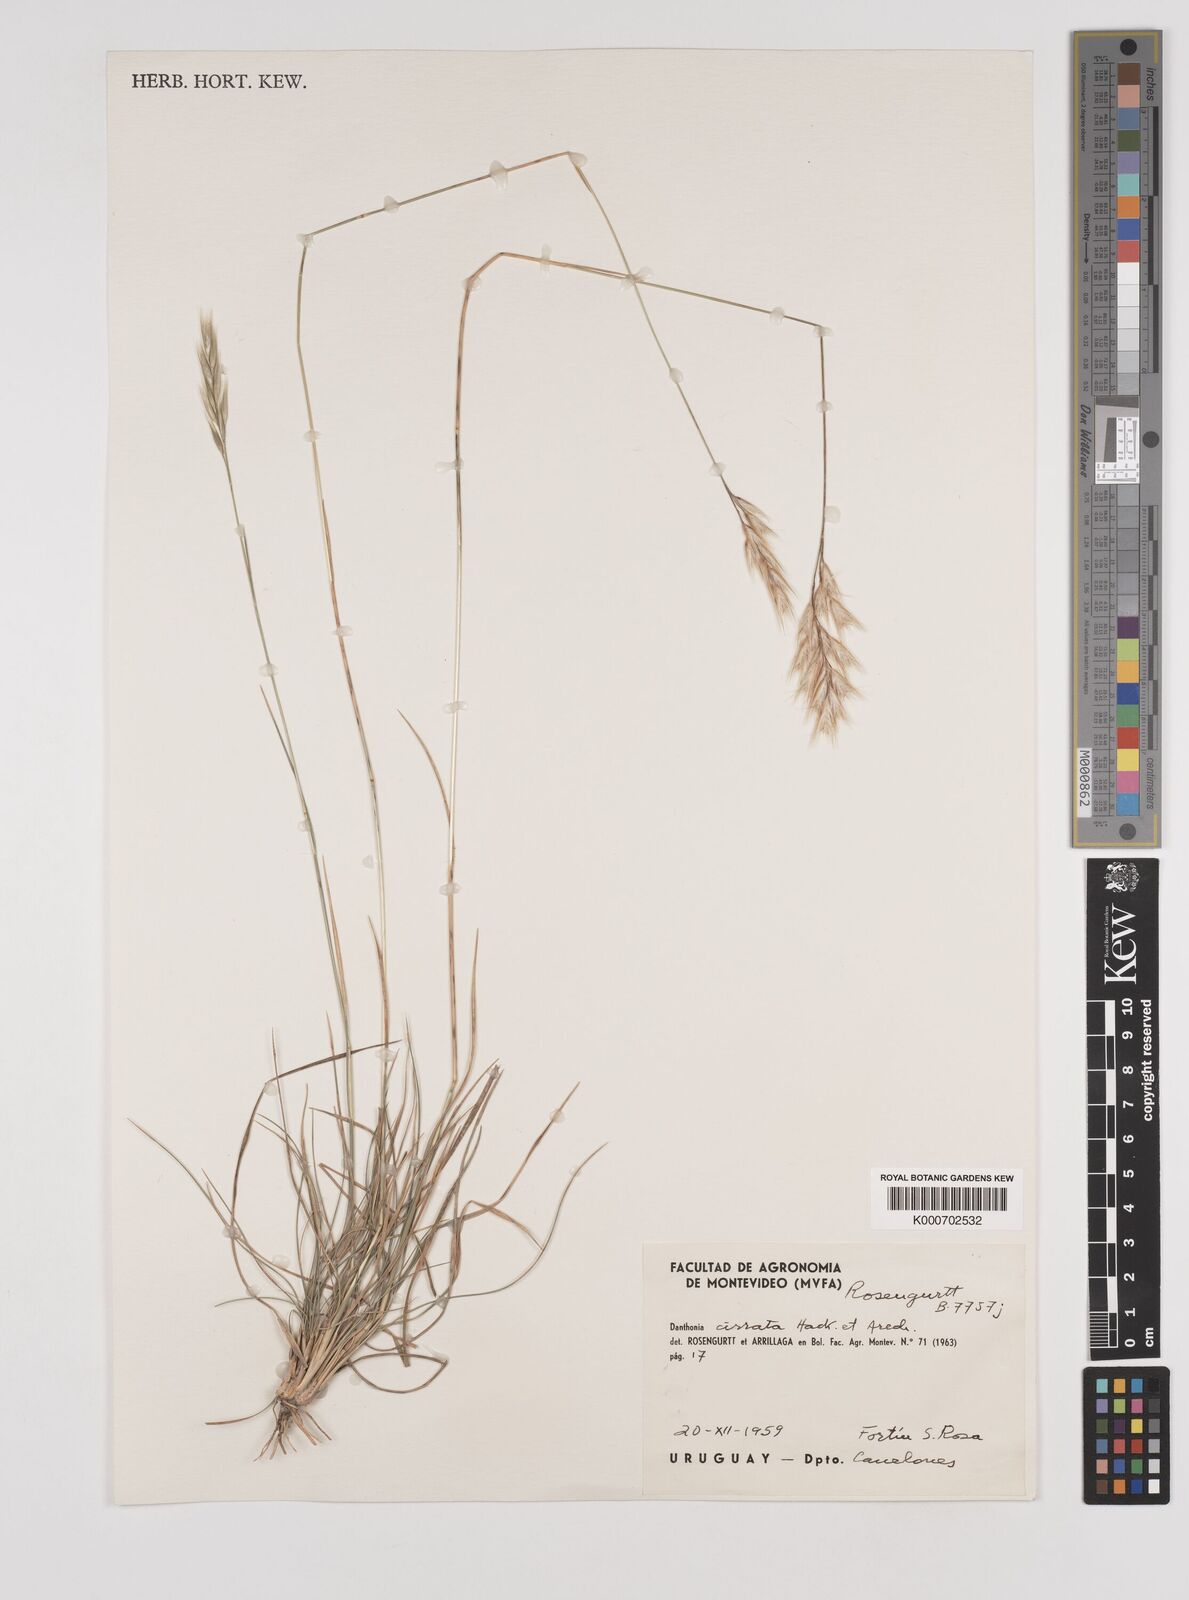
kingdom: Plantae
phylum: Tracheophyta
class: Liliopsida
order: Poales
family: Poaceae
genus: Danthonia
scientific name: Danthonia cirrata
